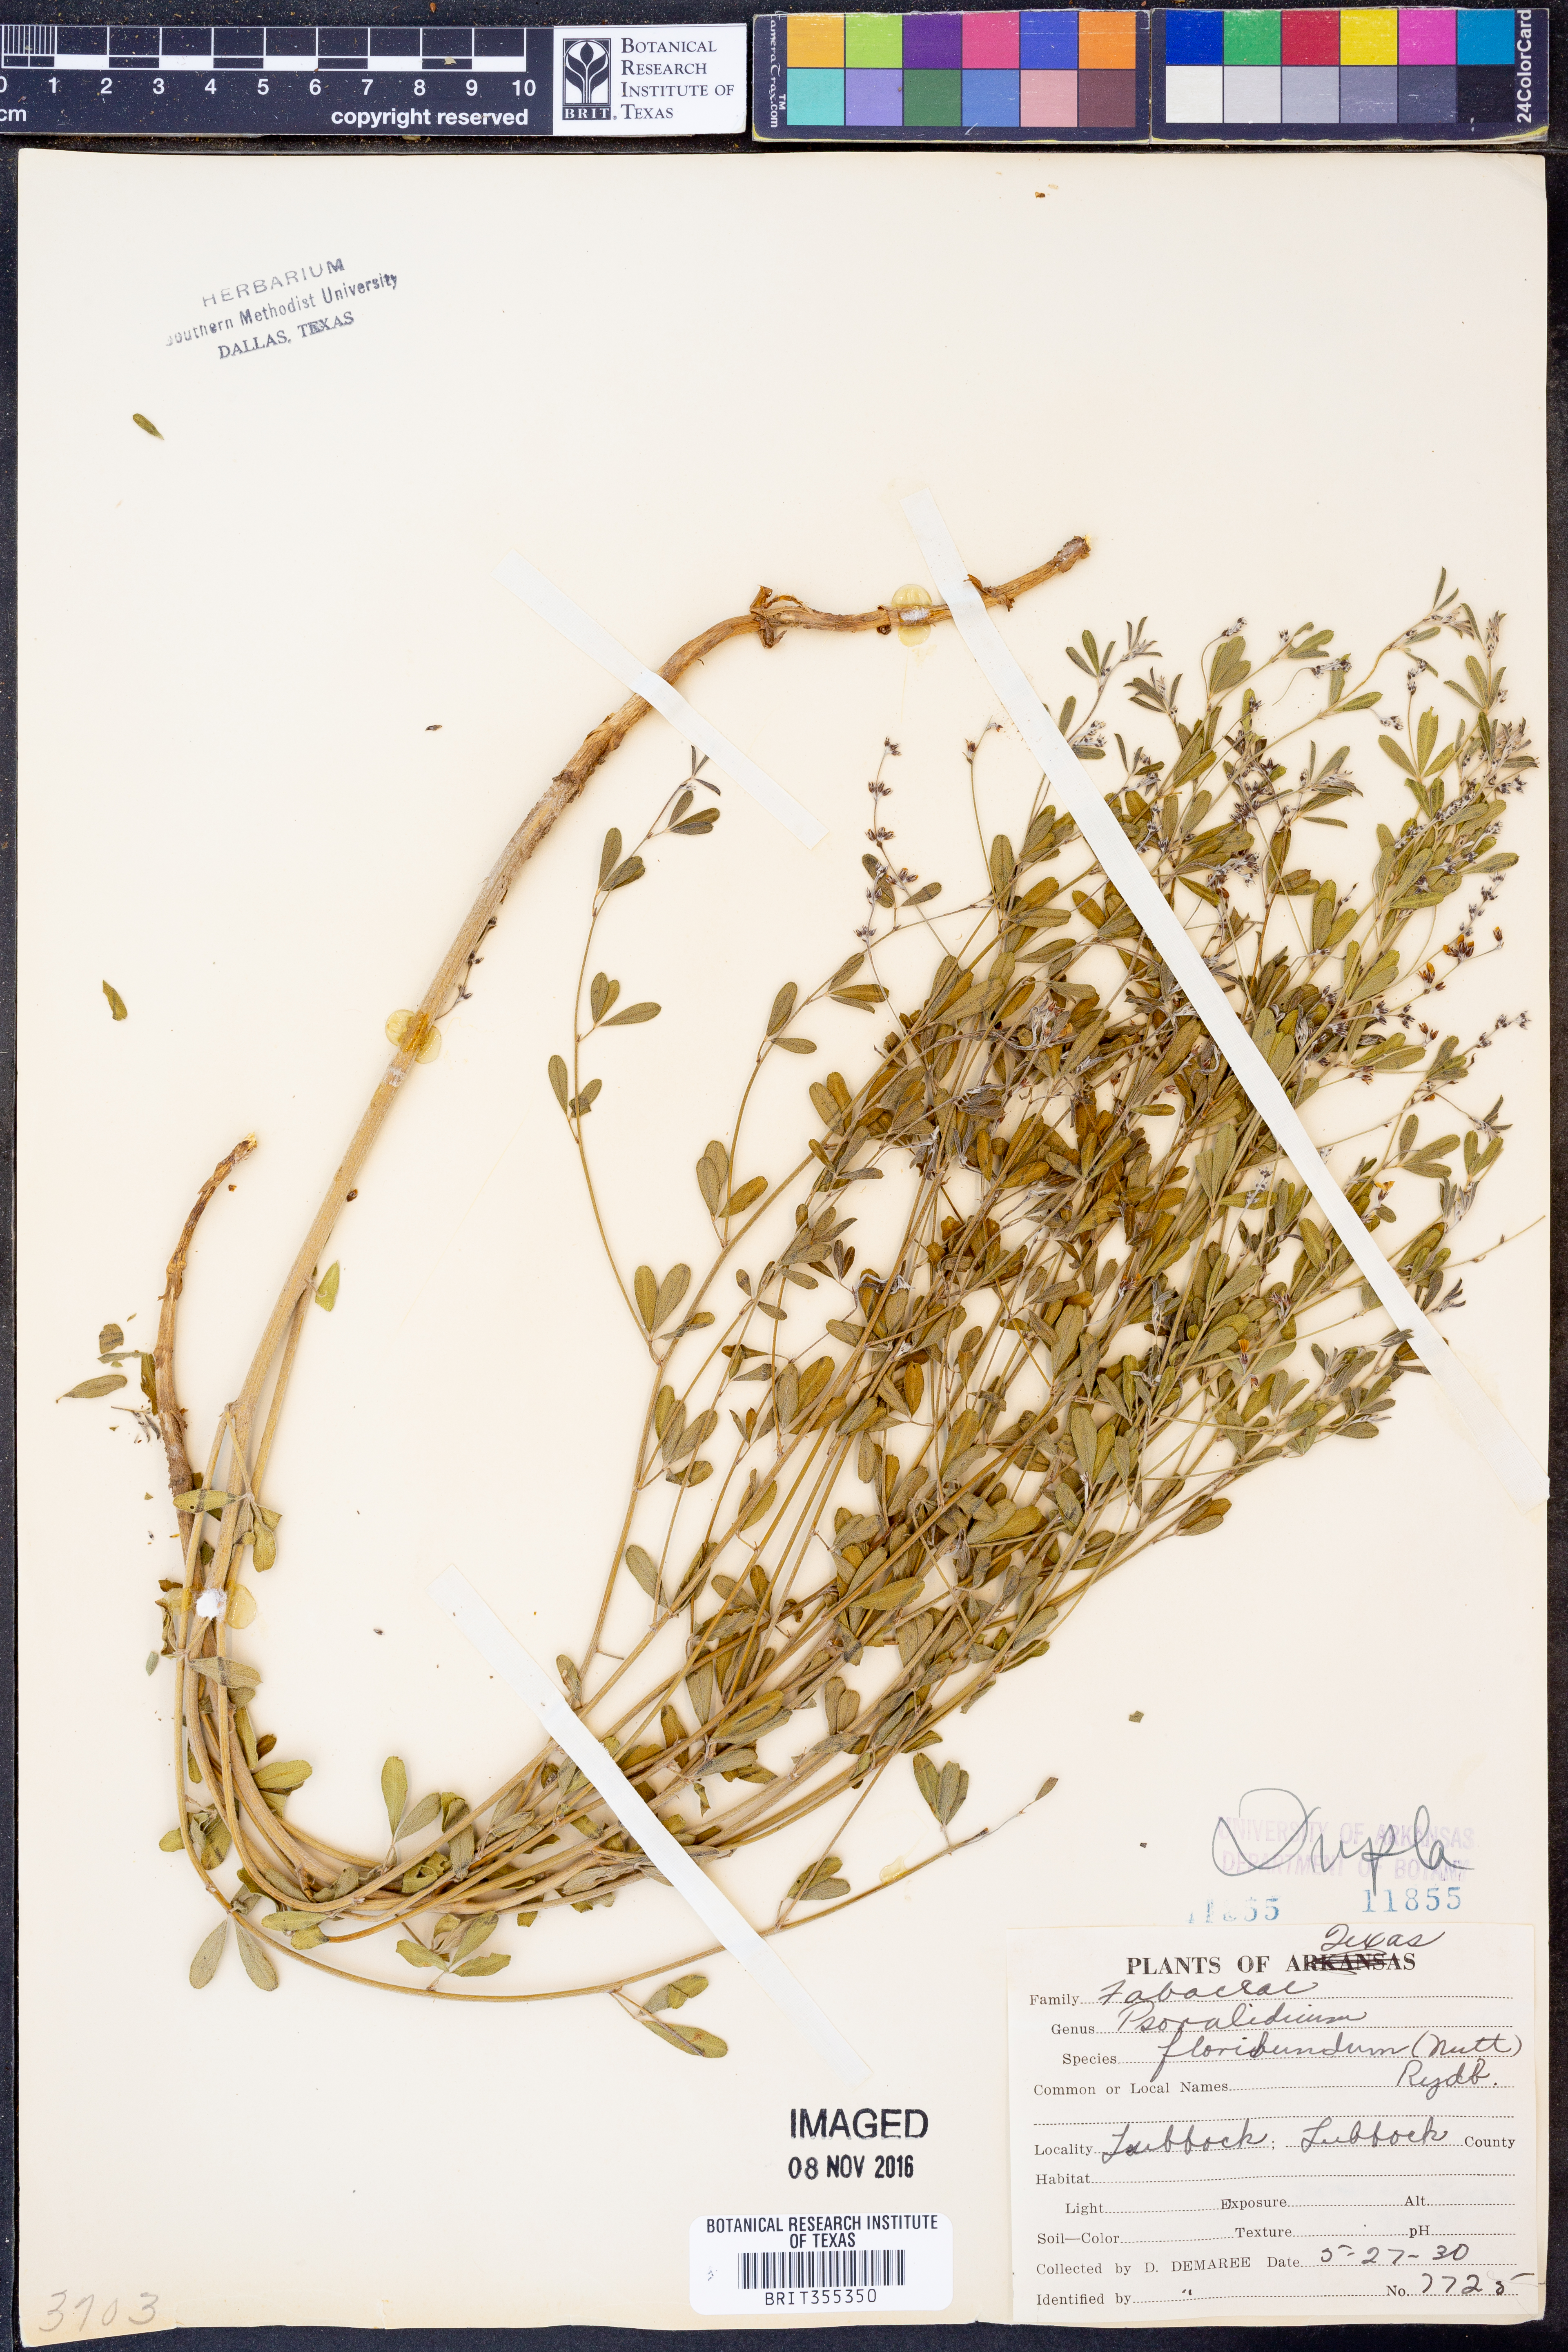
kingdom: Plantae
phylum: Tracheophyta
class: Magnoliopsida
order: Fabales
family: Fabaceae
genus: Pediomelum
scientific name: Pediomelum tenuiflorum
